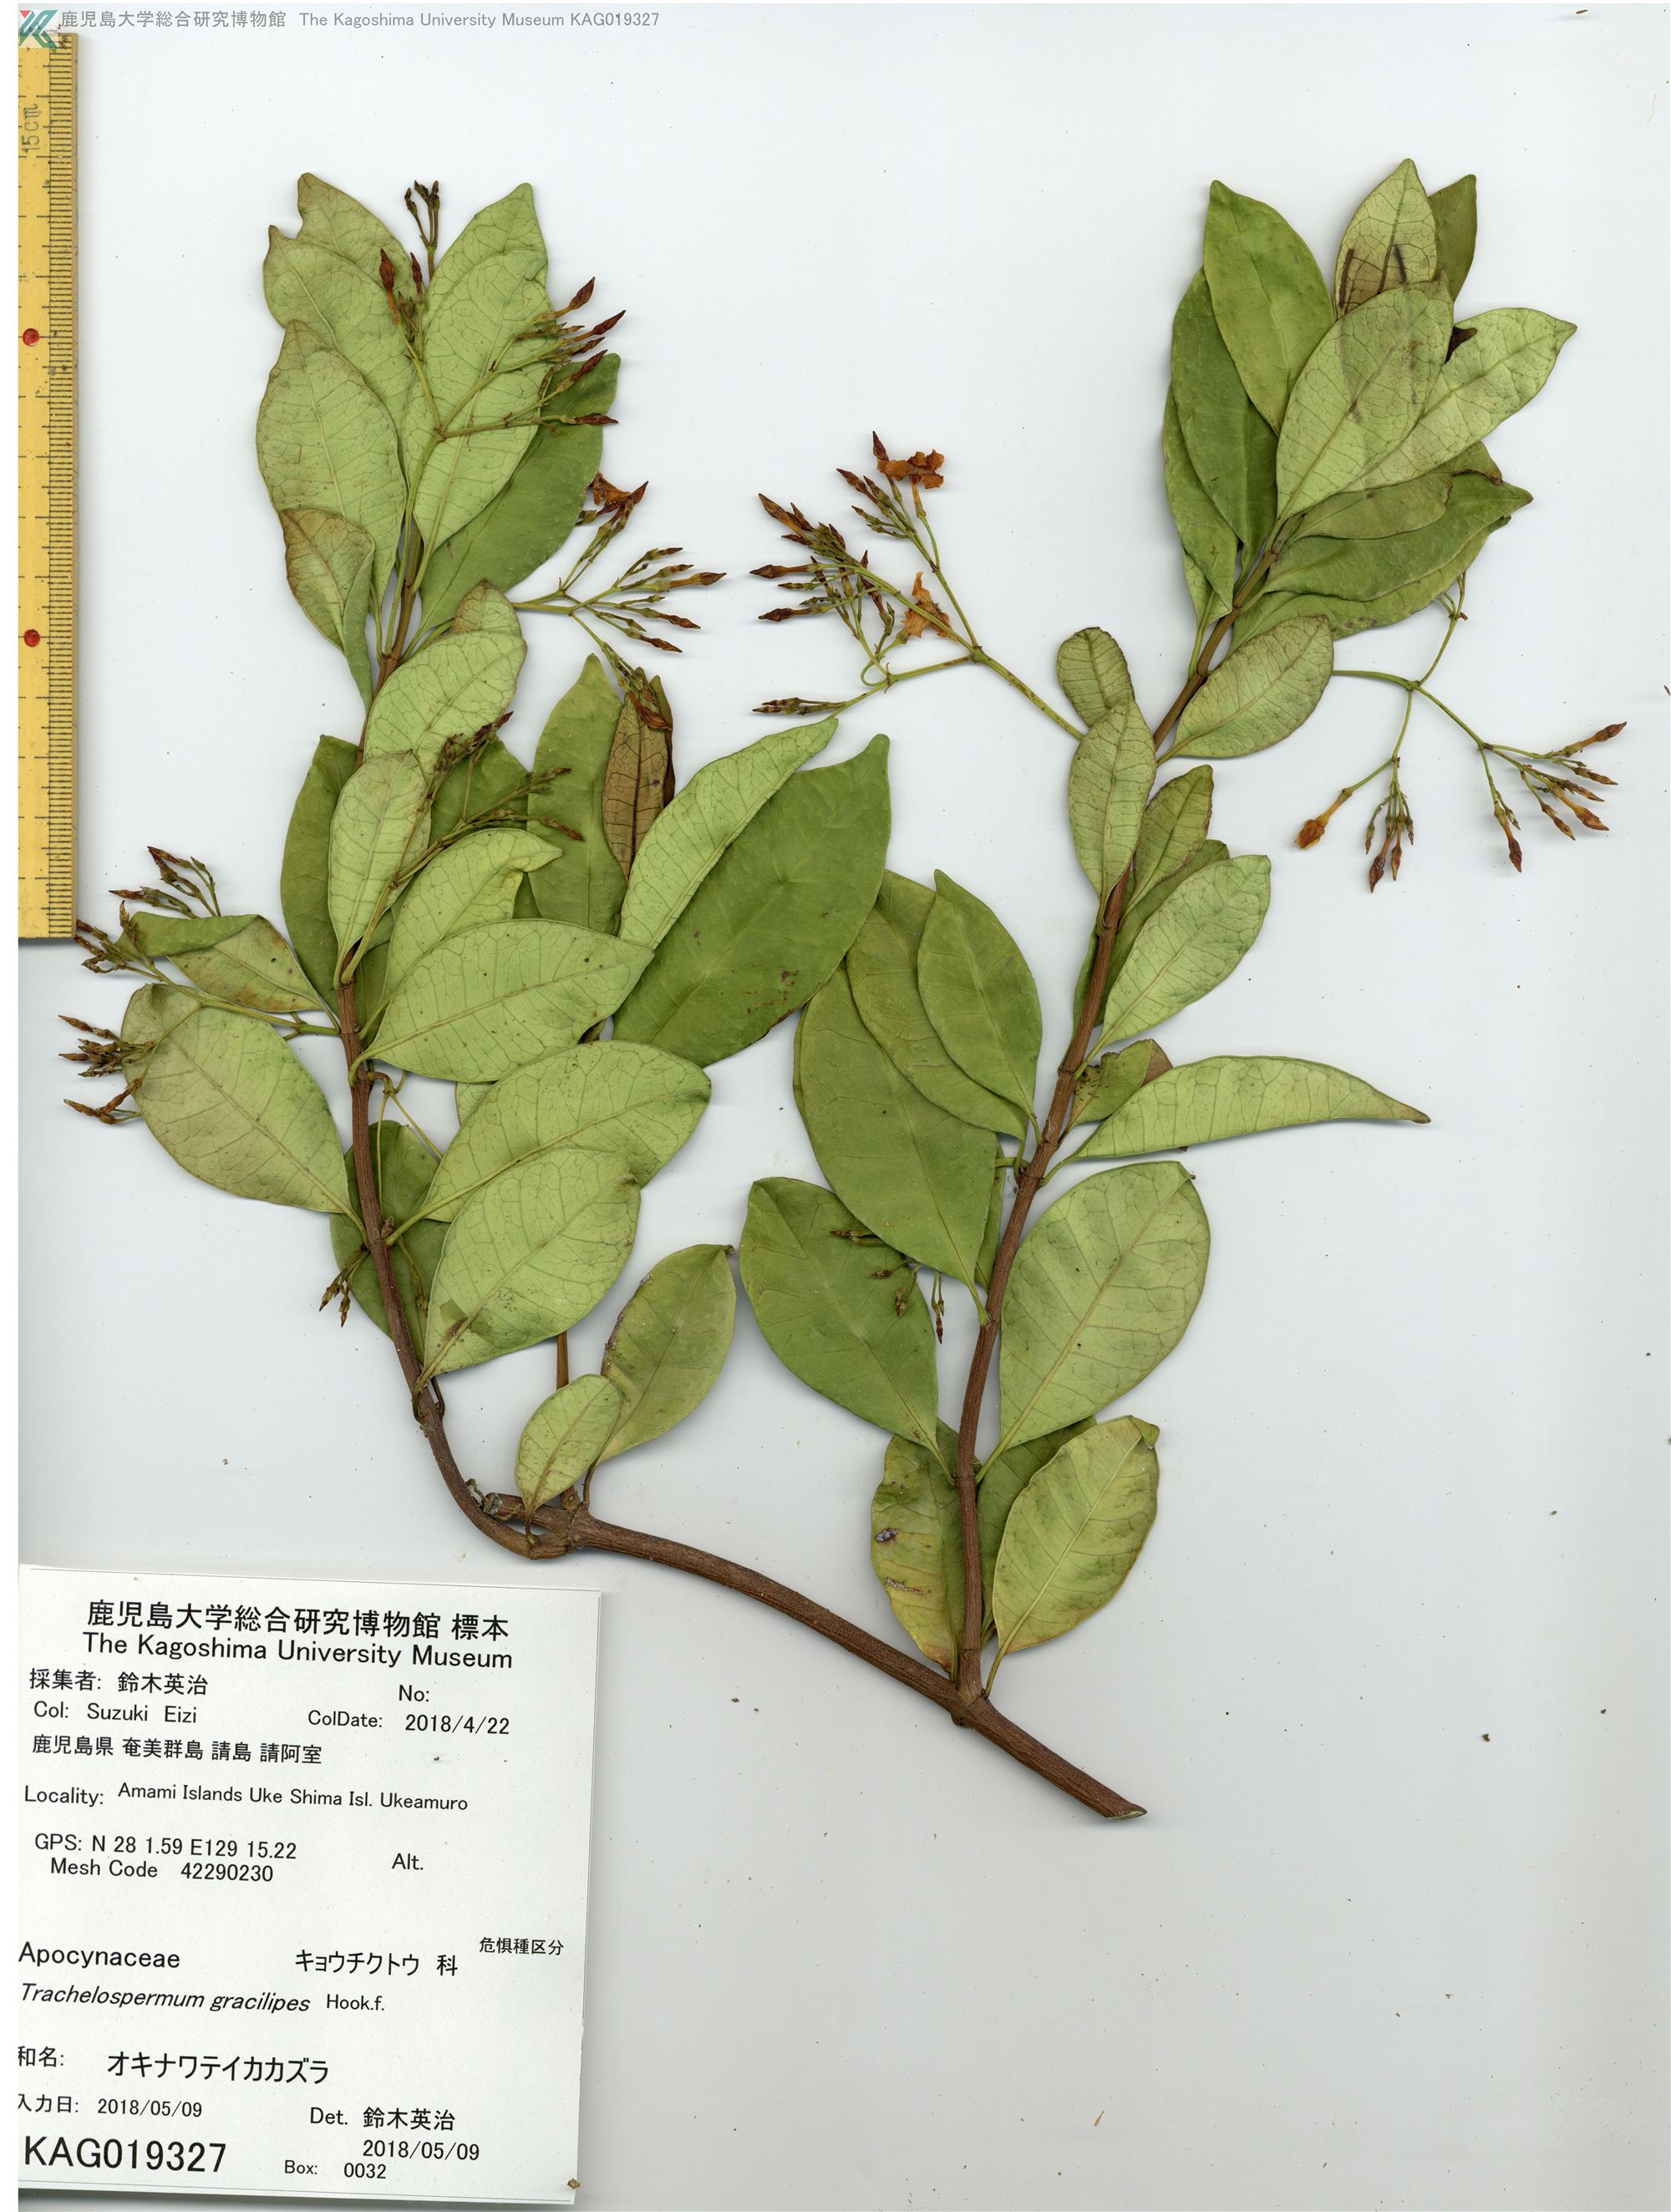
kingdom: Plantae
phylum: Tracheophyta
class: Magnoliopsida
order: Gentianales
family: Apocynaceae
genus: Trachelospermum
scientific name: Trachelospermum gracilipes
